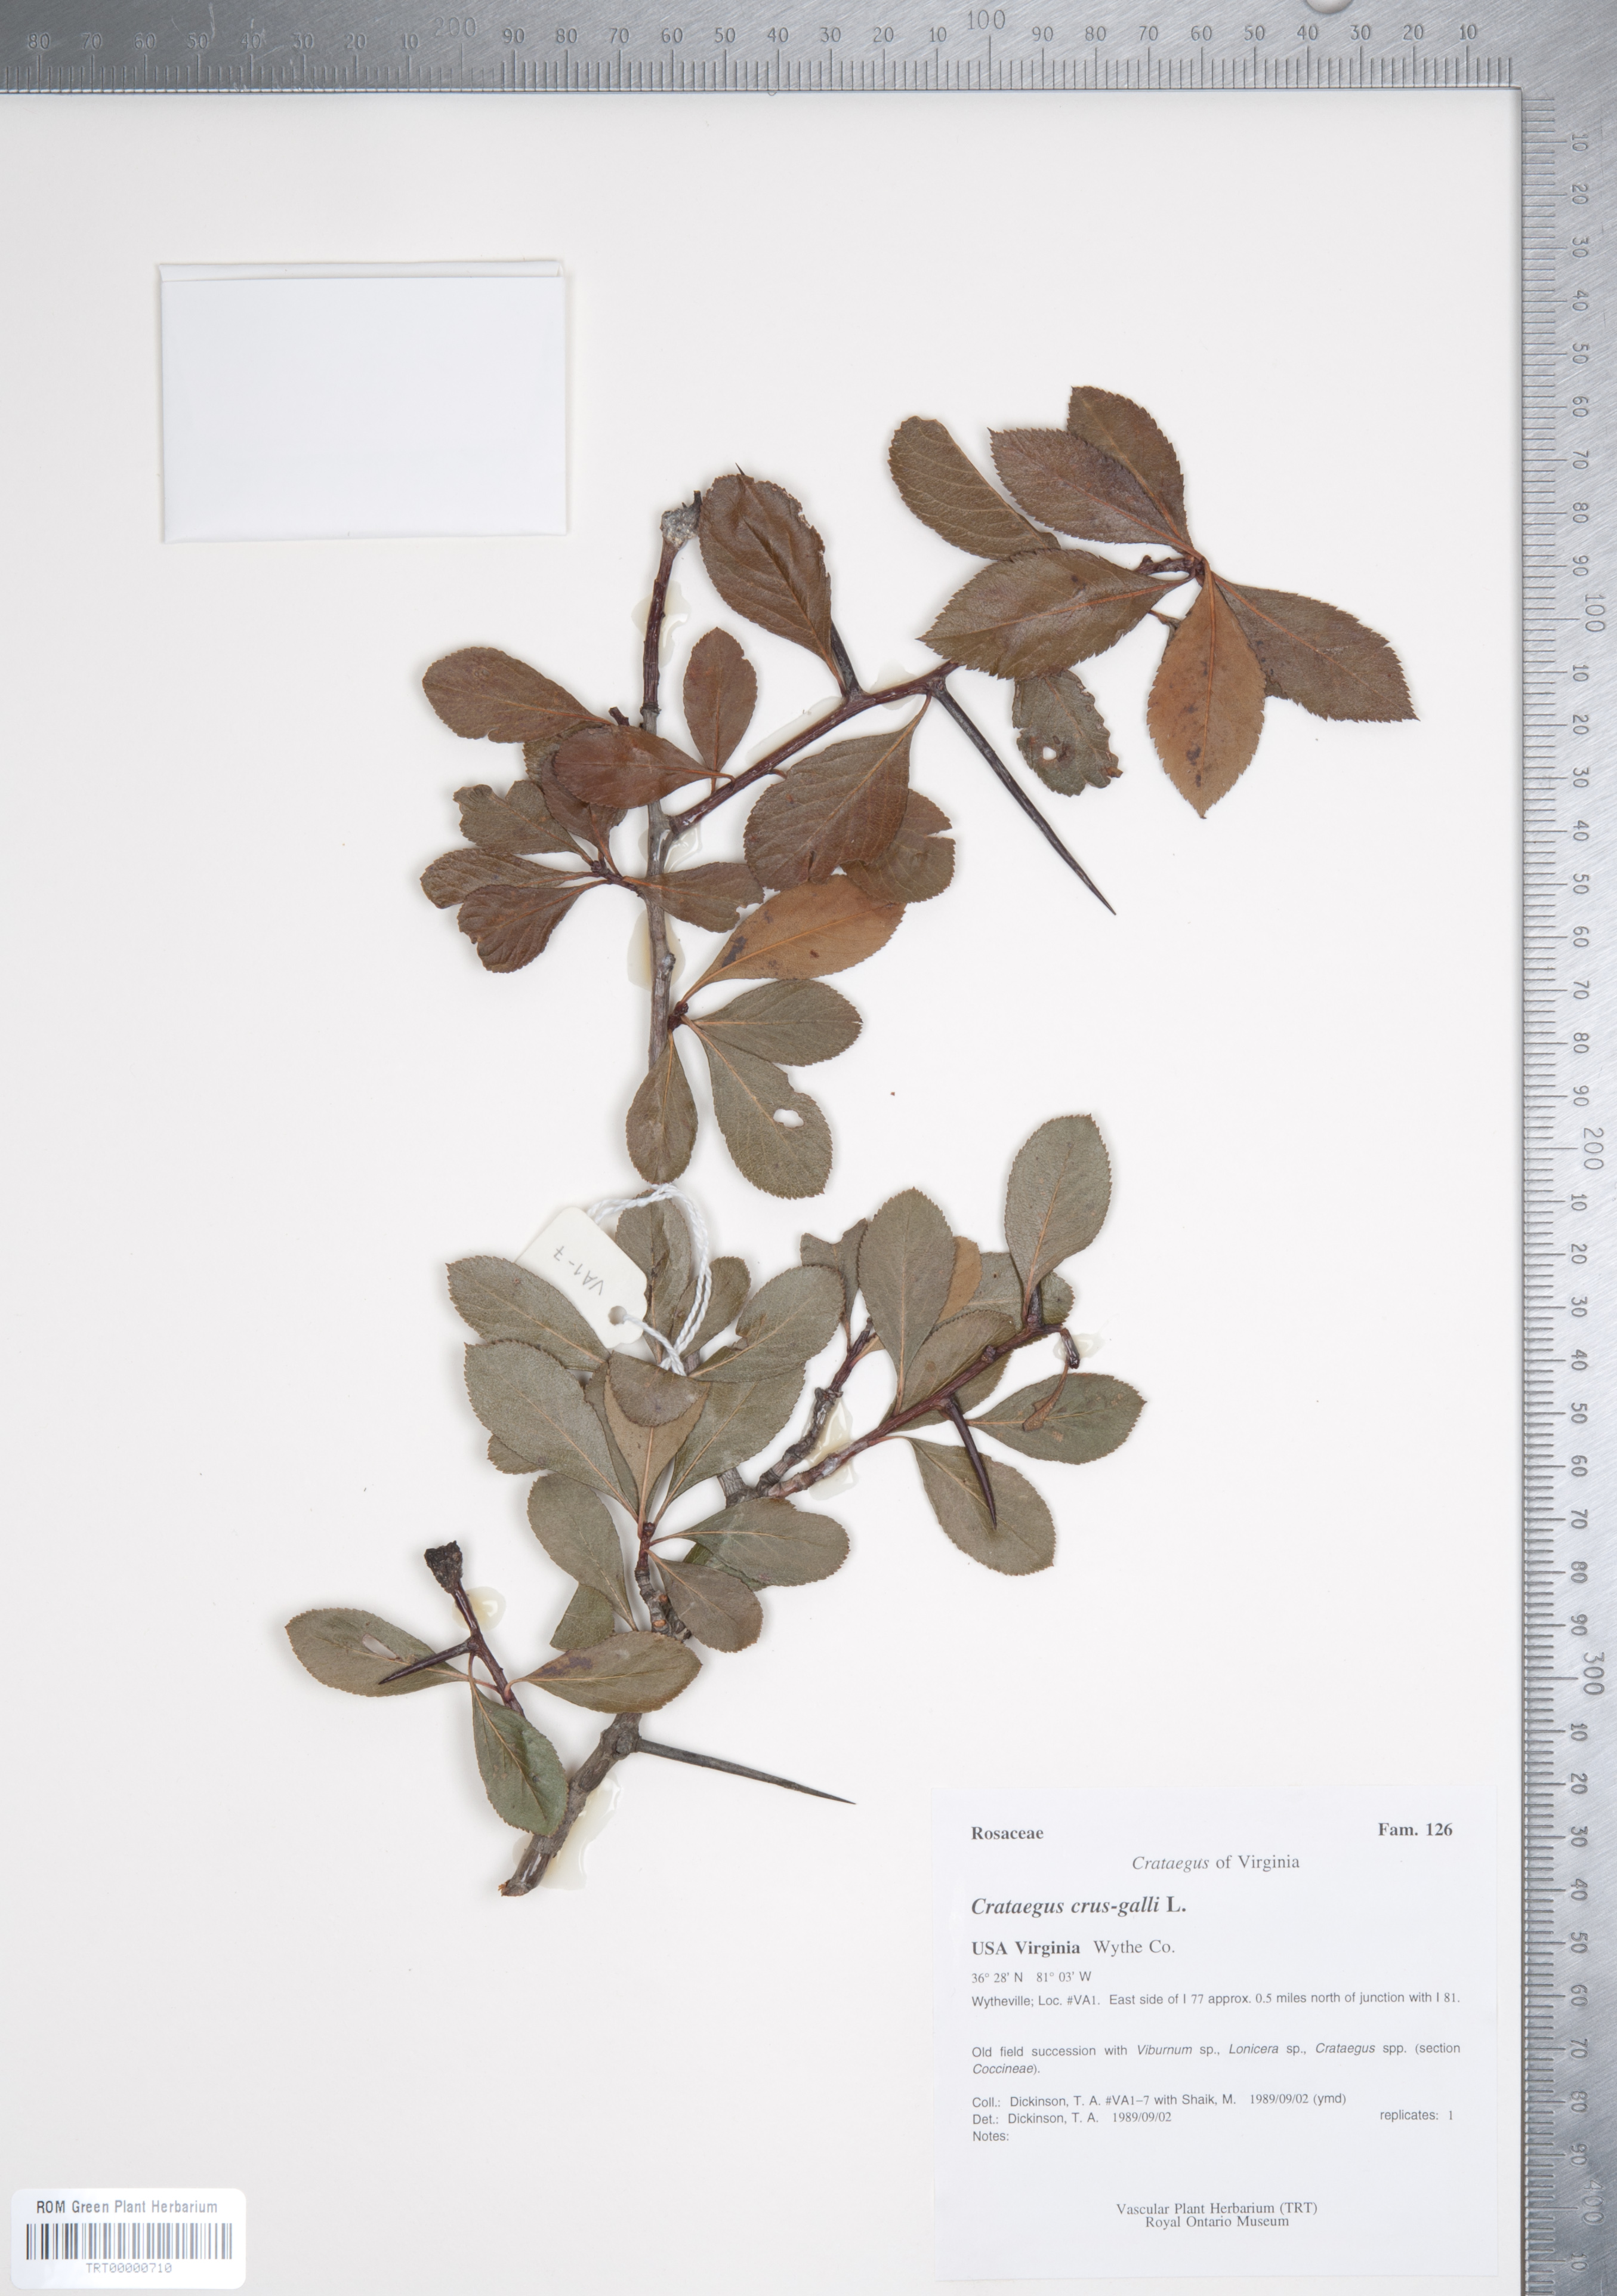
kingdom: Plantae
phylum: Tracheophyta
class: Magnoliopsida
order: Rosales
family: Rosaceae
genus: Crataegus
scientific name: Crataegus crus-galli
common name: Cockspurthorn
